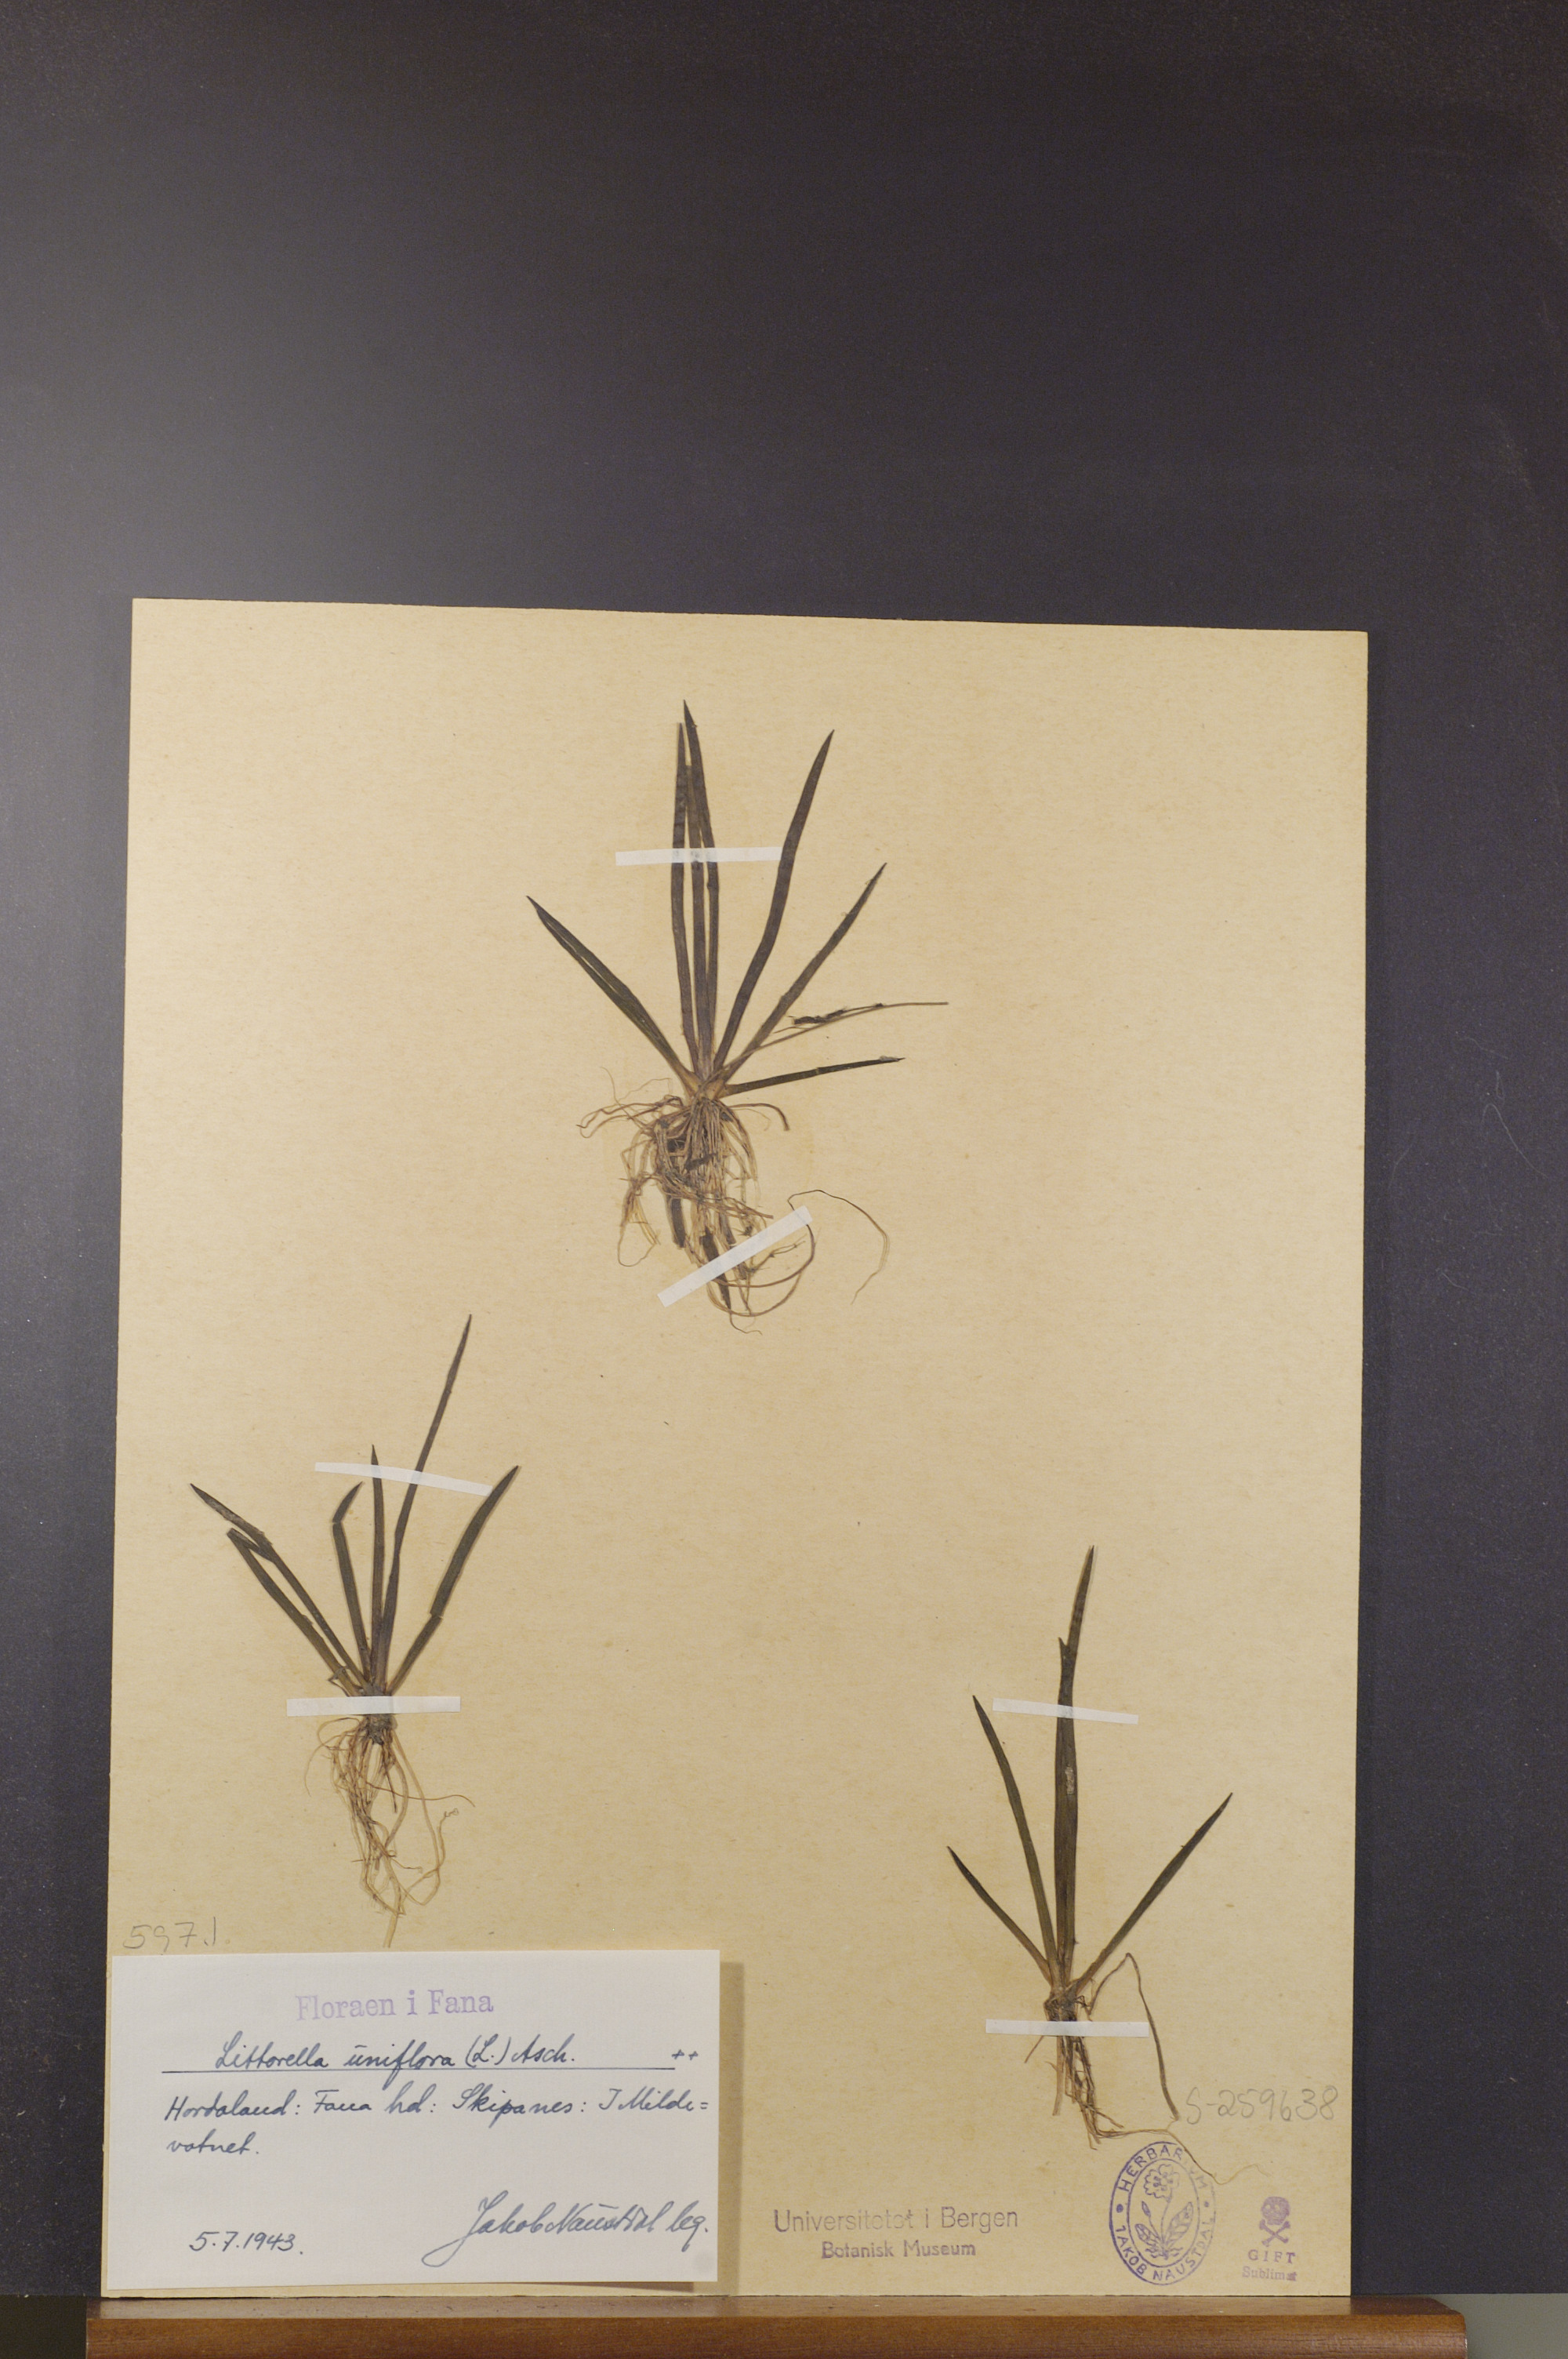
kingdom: Plantae
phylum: Tracheophyta
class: Magnoliopsida
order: Lamiales
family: Plantaginaceae
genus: Littorella
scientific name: Littorella uniflora
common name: Shoreweed
